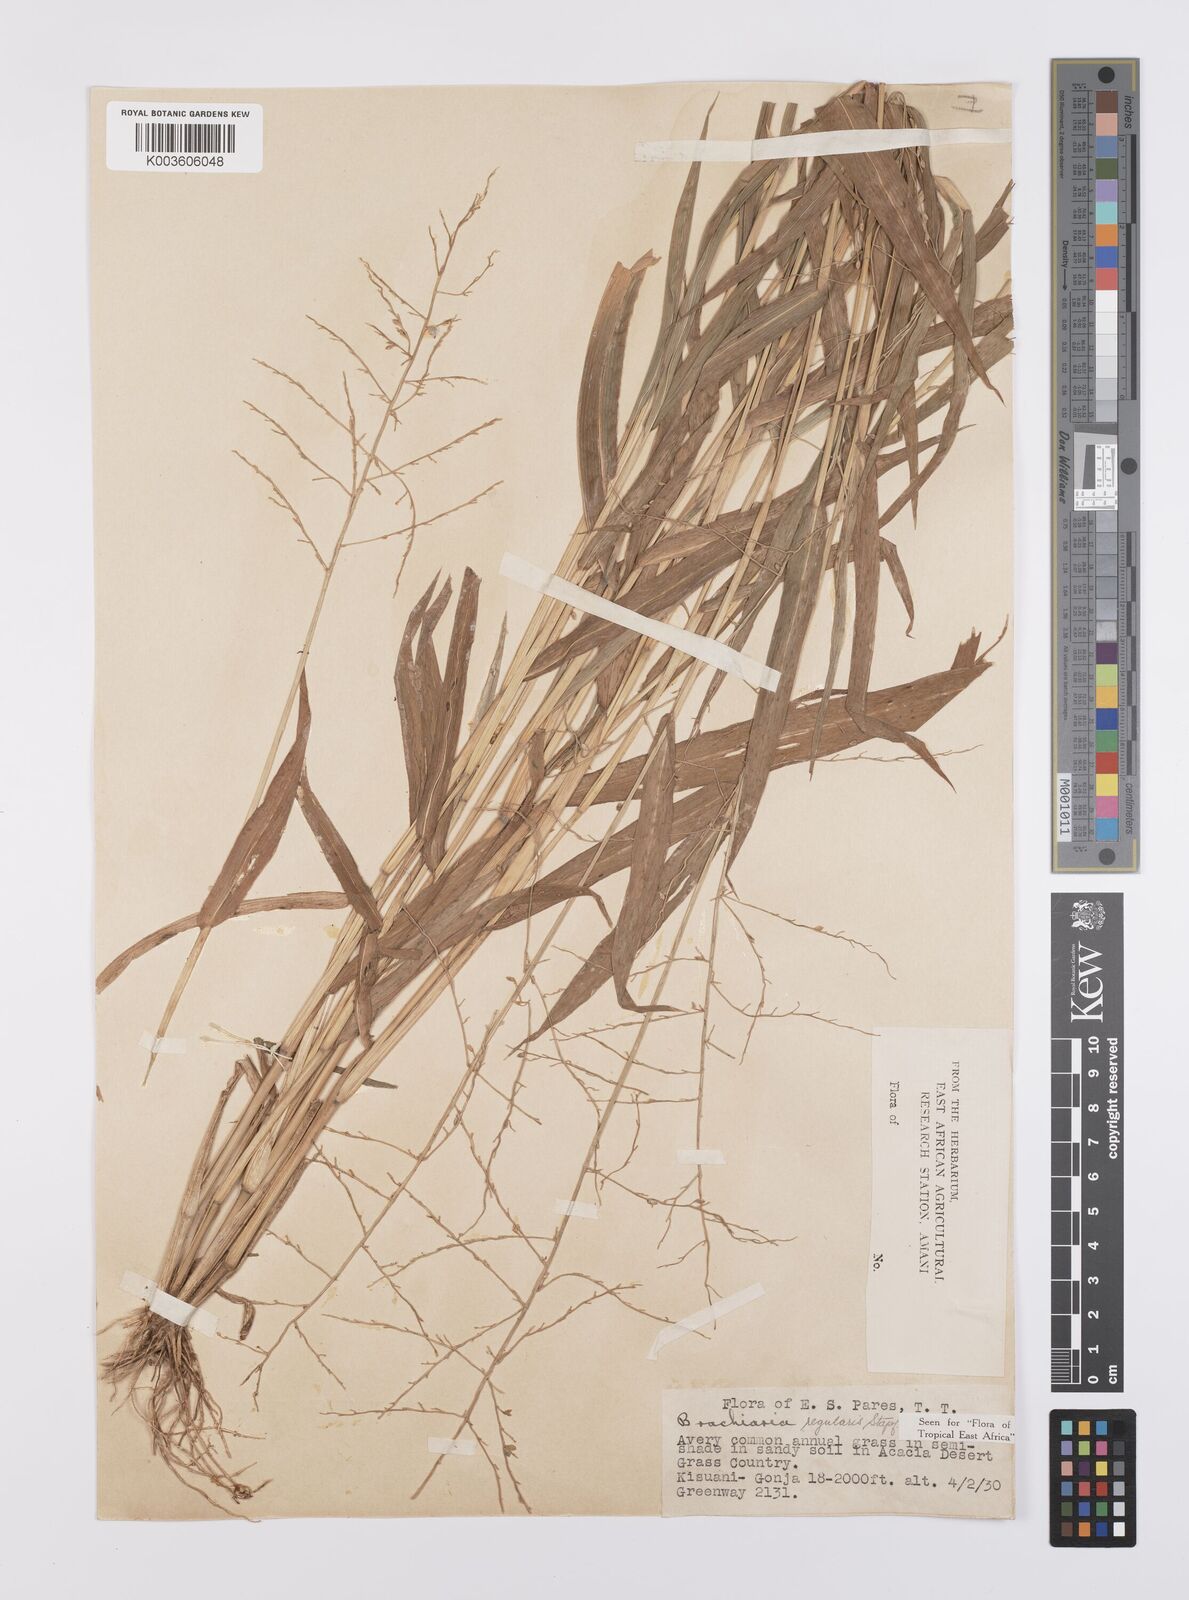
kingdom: Plantae
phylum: Tracheophyta
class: Liliopsida
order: Poales
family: Poaceae
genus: Urochloa
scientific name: Urochloa deflexa
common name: Guinea millet
